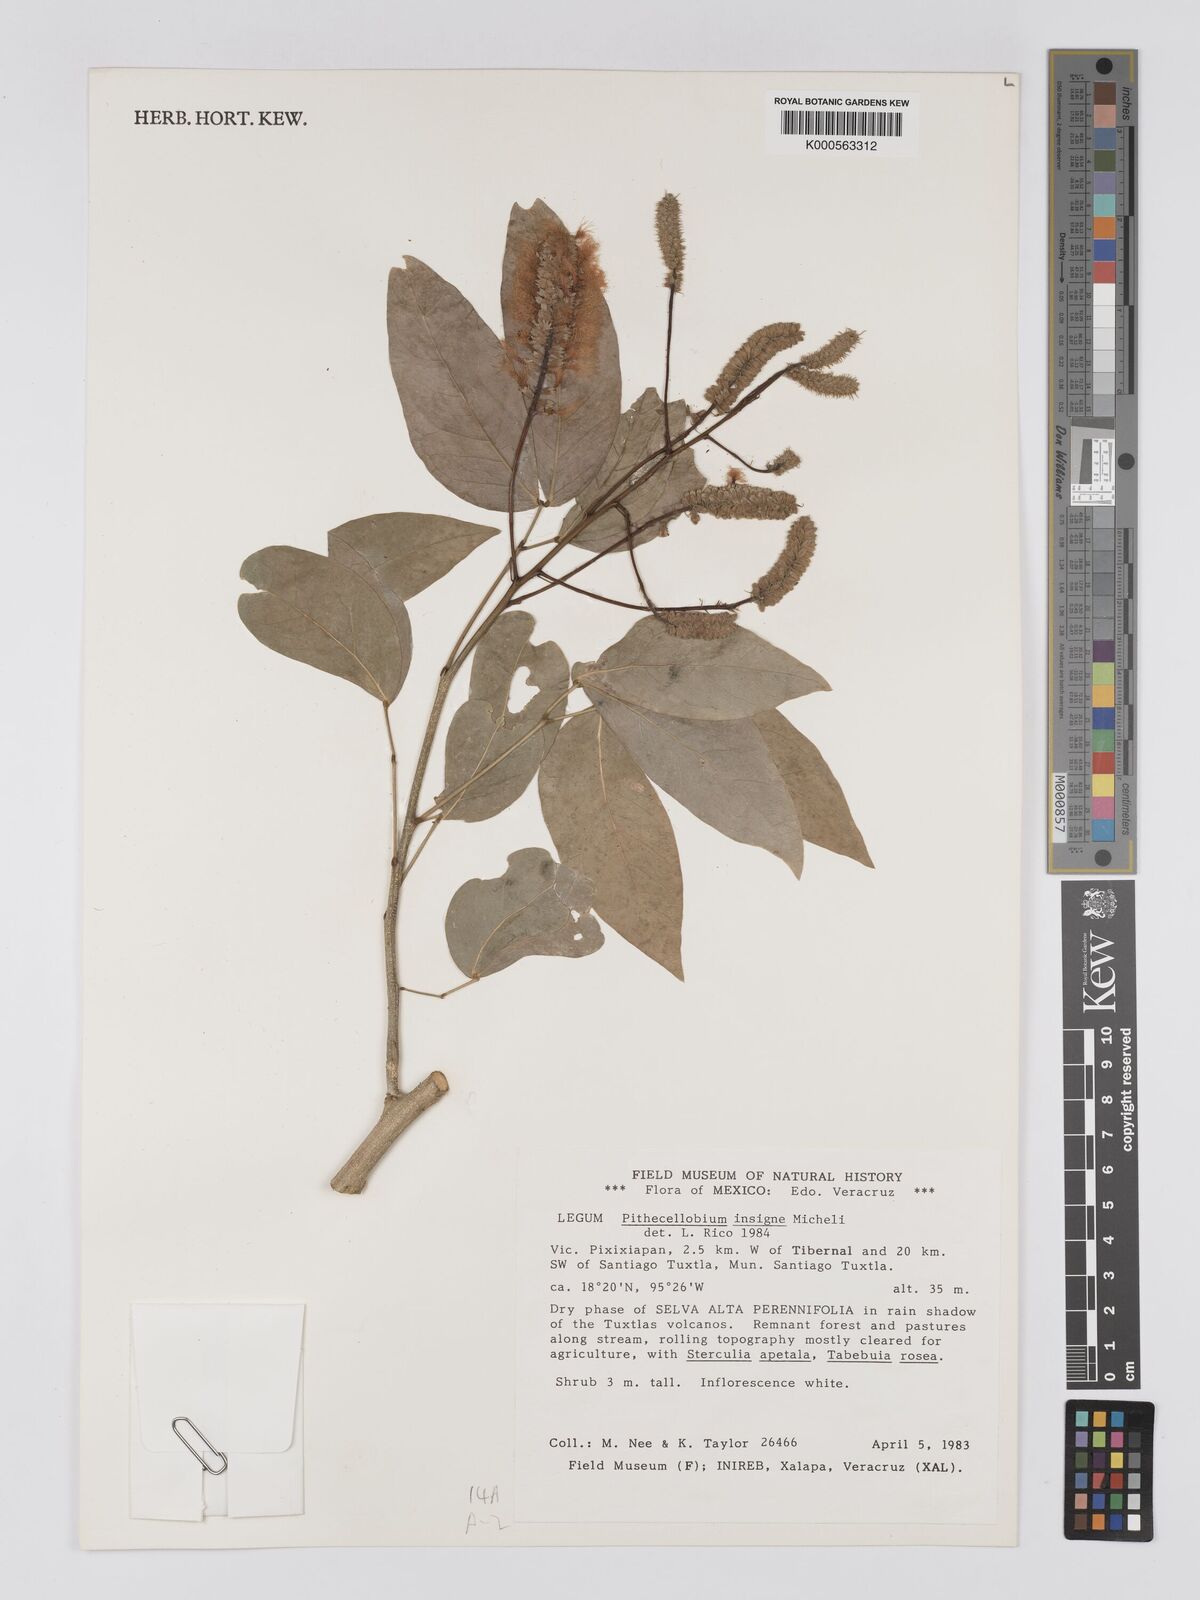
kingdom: Plantae
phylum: Tracheophyta
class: Magnoliopsida
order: Fabales
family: Fabaceae
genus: Pithecellobium
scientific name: Pithecellobium lanceolatum
